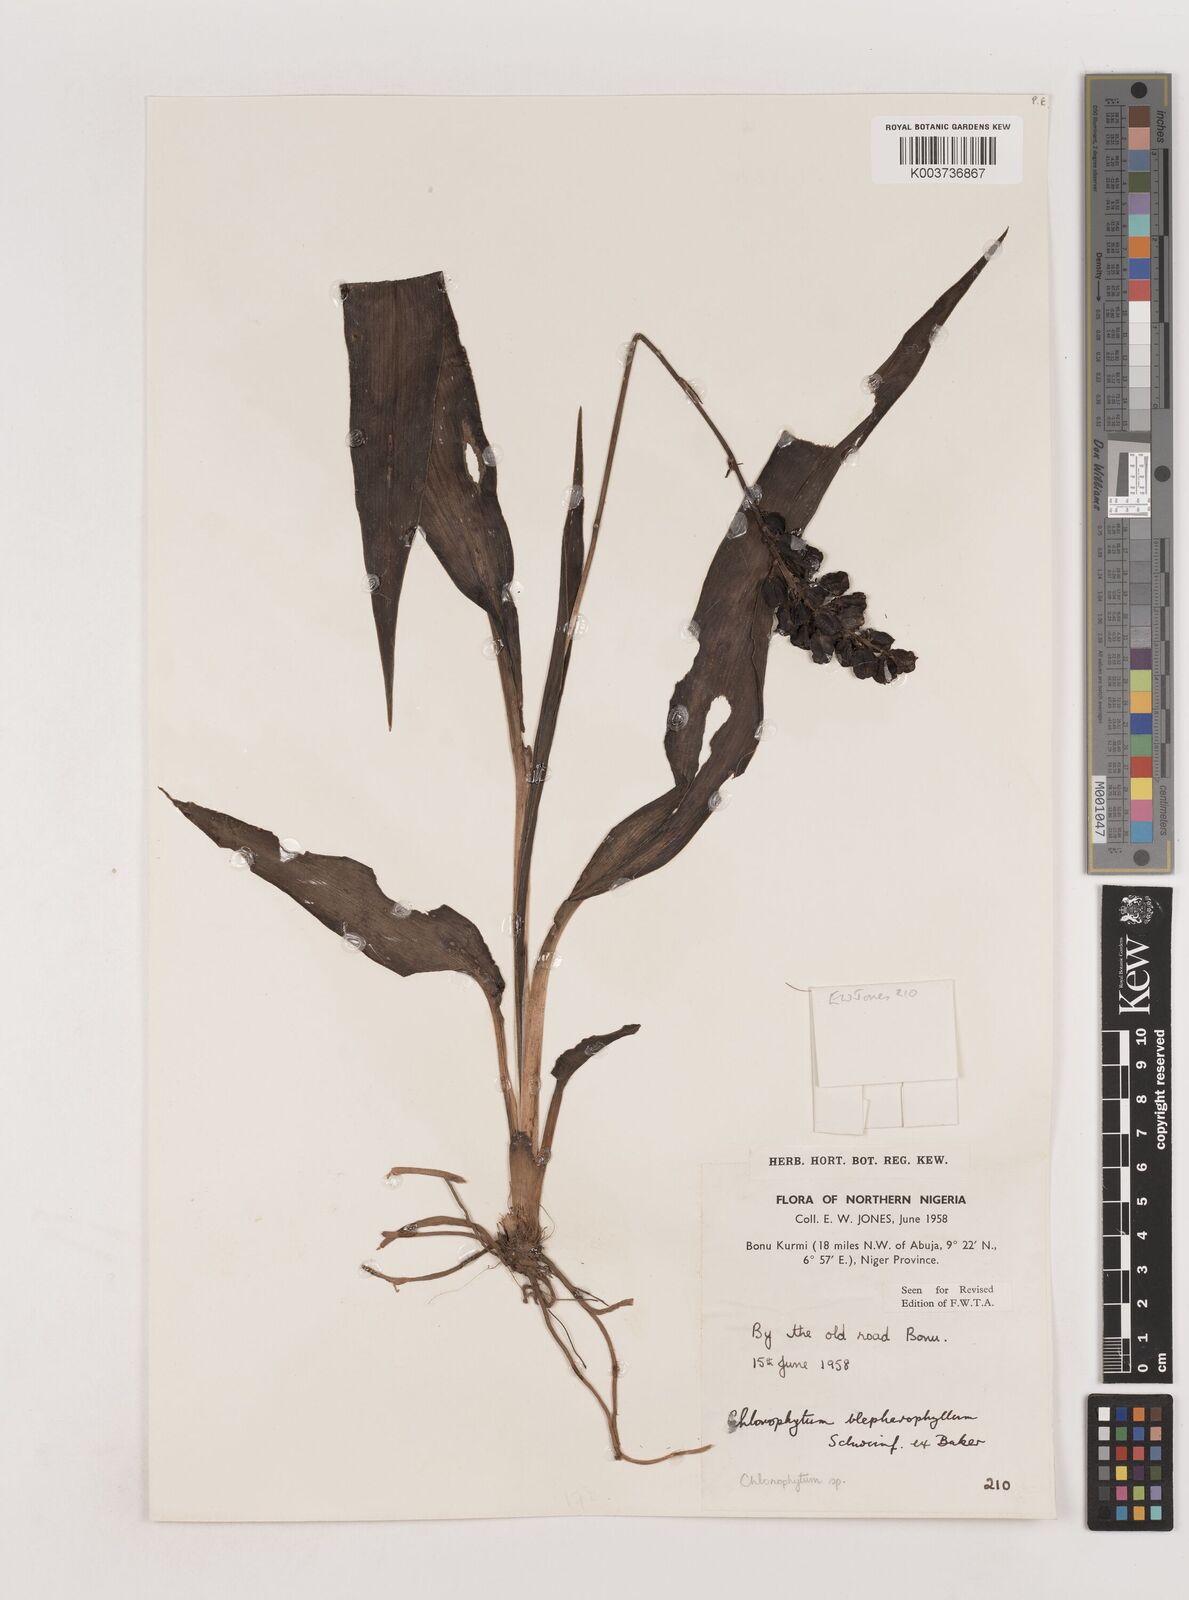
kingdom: Plantae
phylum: Tracheophyta
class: Liliopsida
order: Asparagales
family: Asparagaceae
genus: Chlorophytum
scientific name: Chlorophytum blepharophyllum
